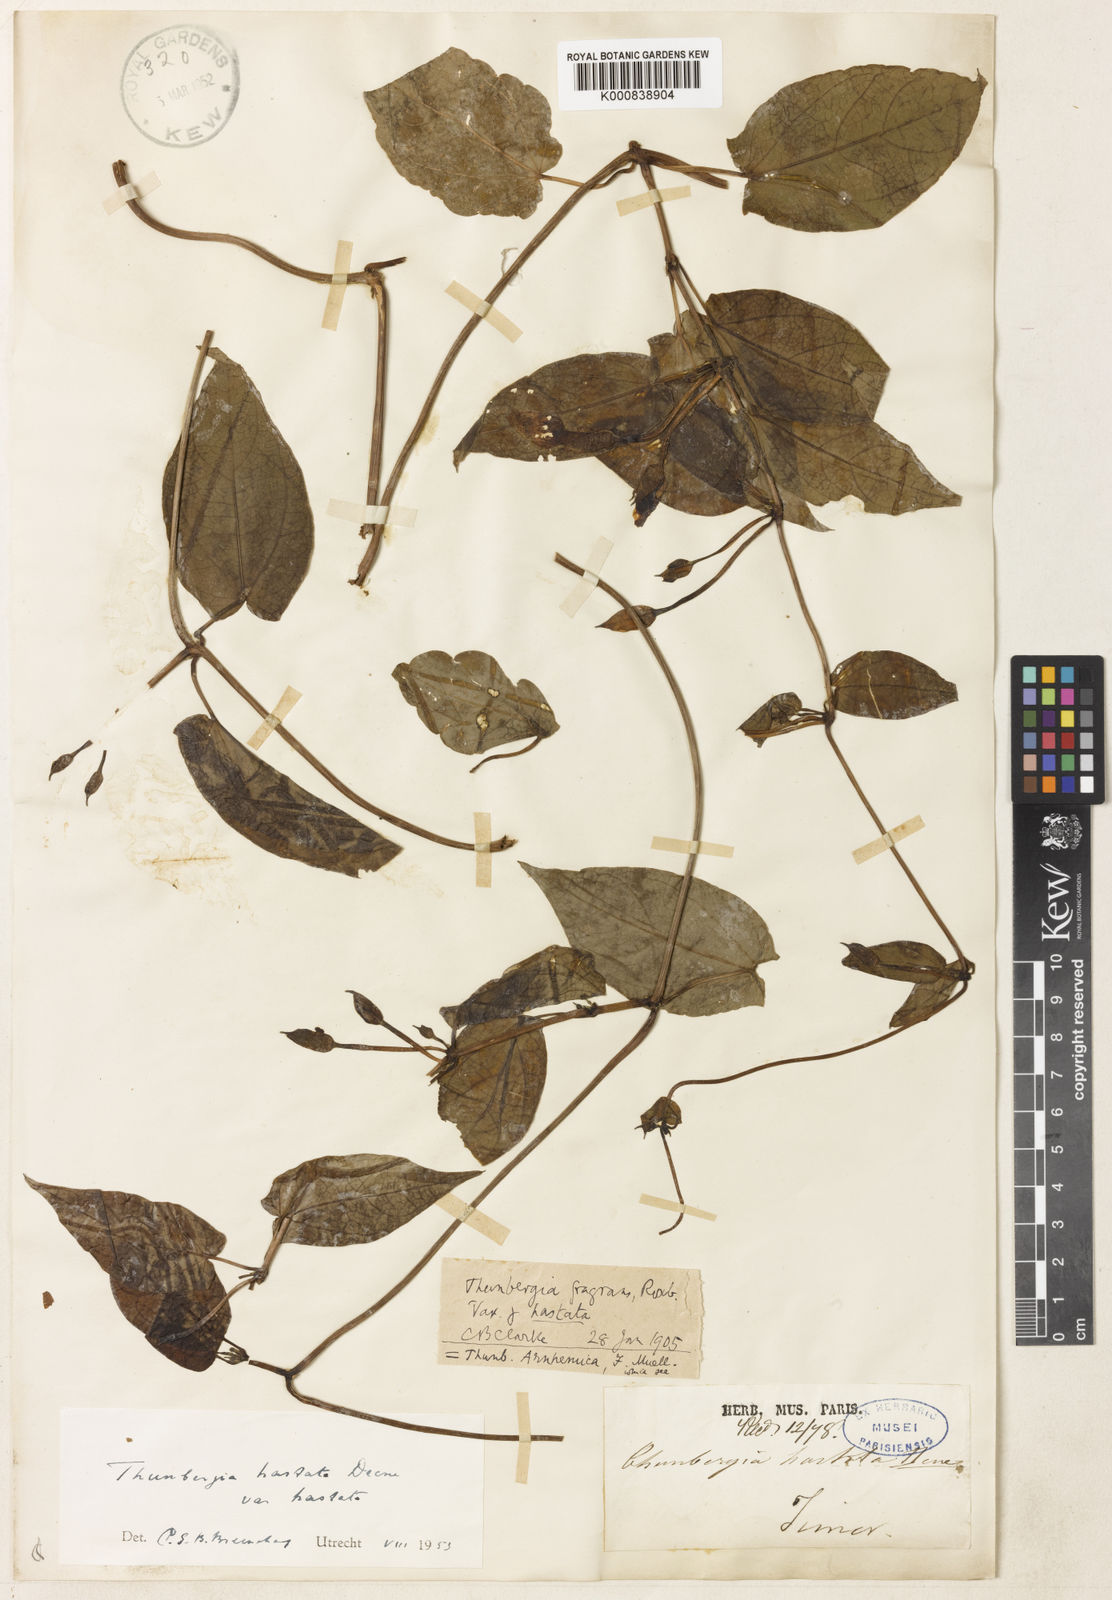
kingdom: Plantae
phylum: Tracheophyta
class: Magnoliopsida
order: Lamiales
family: Acanthaceae
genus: Thunbergia
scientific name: Thunbergia hastata
